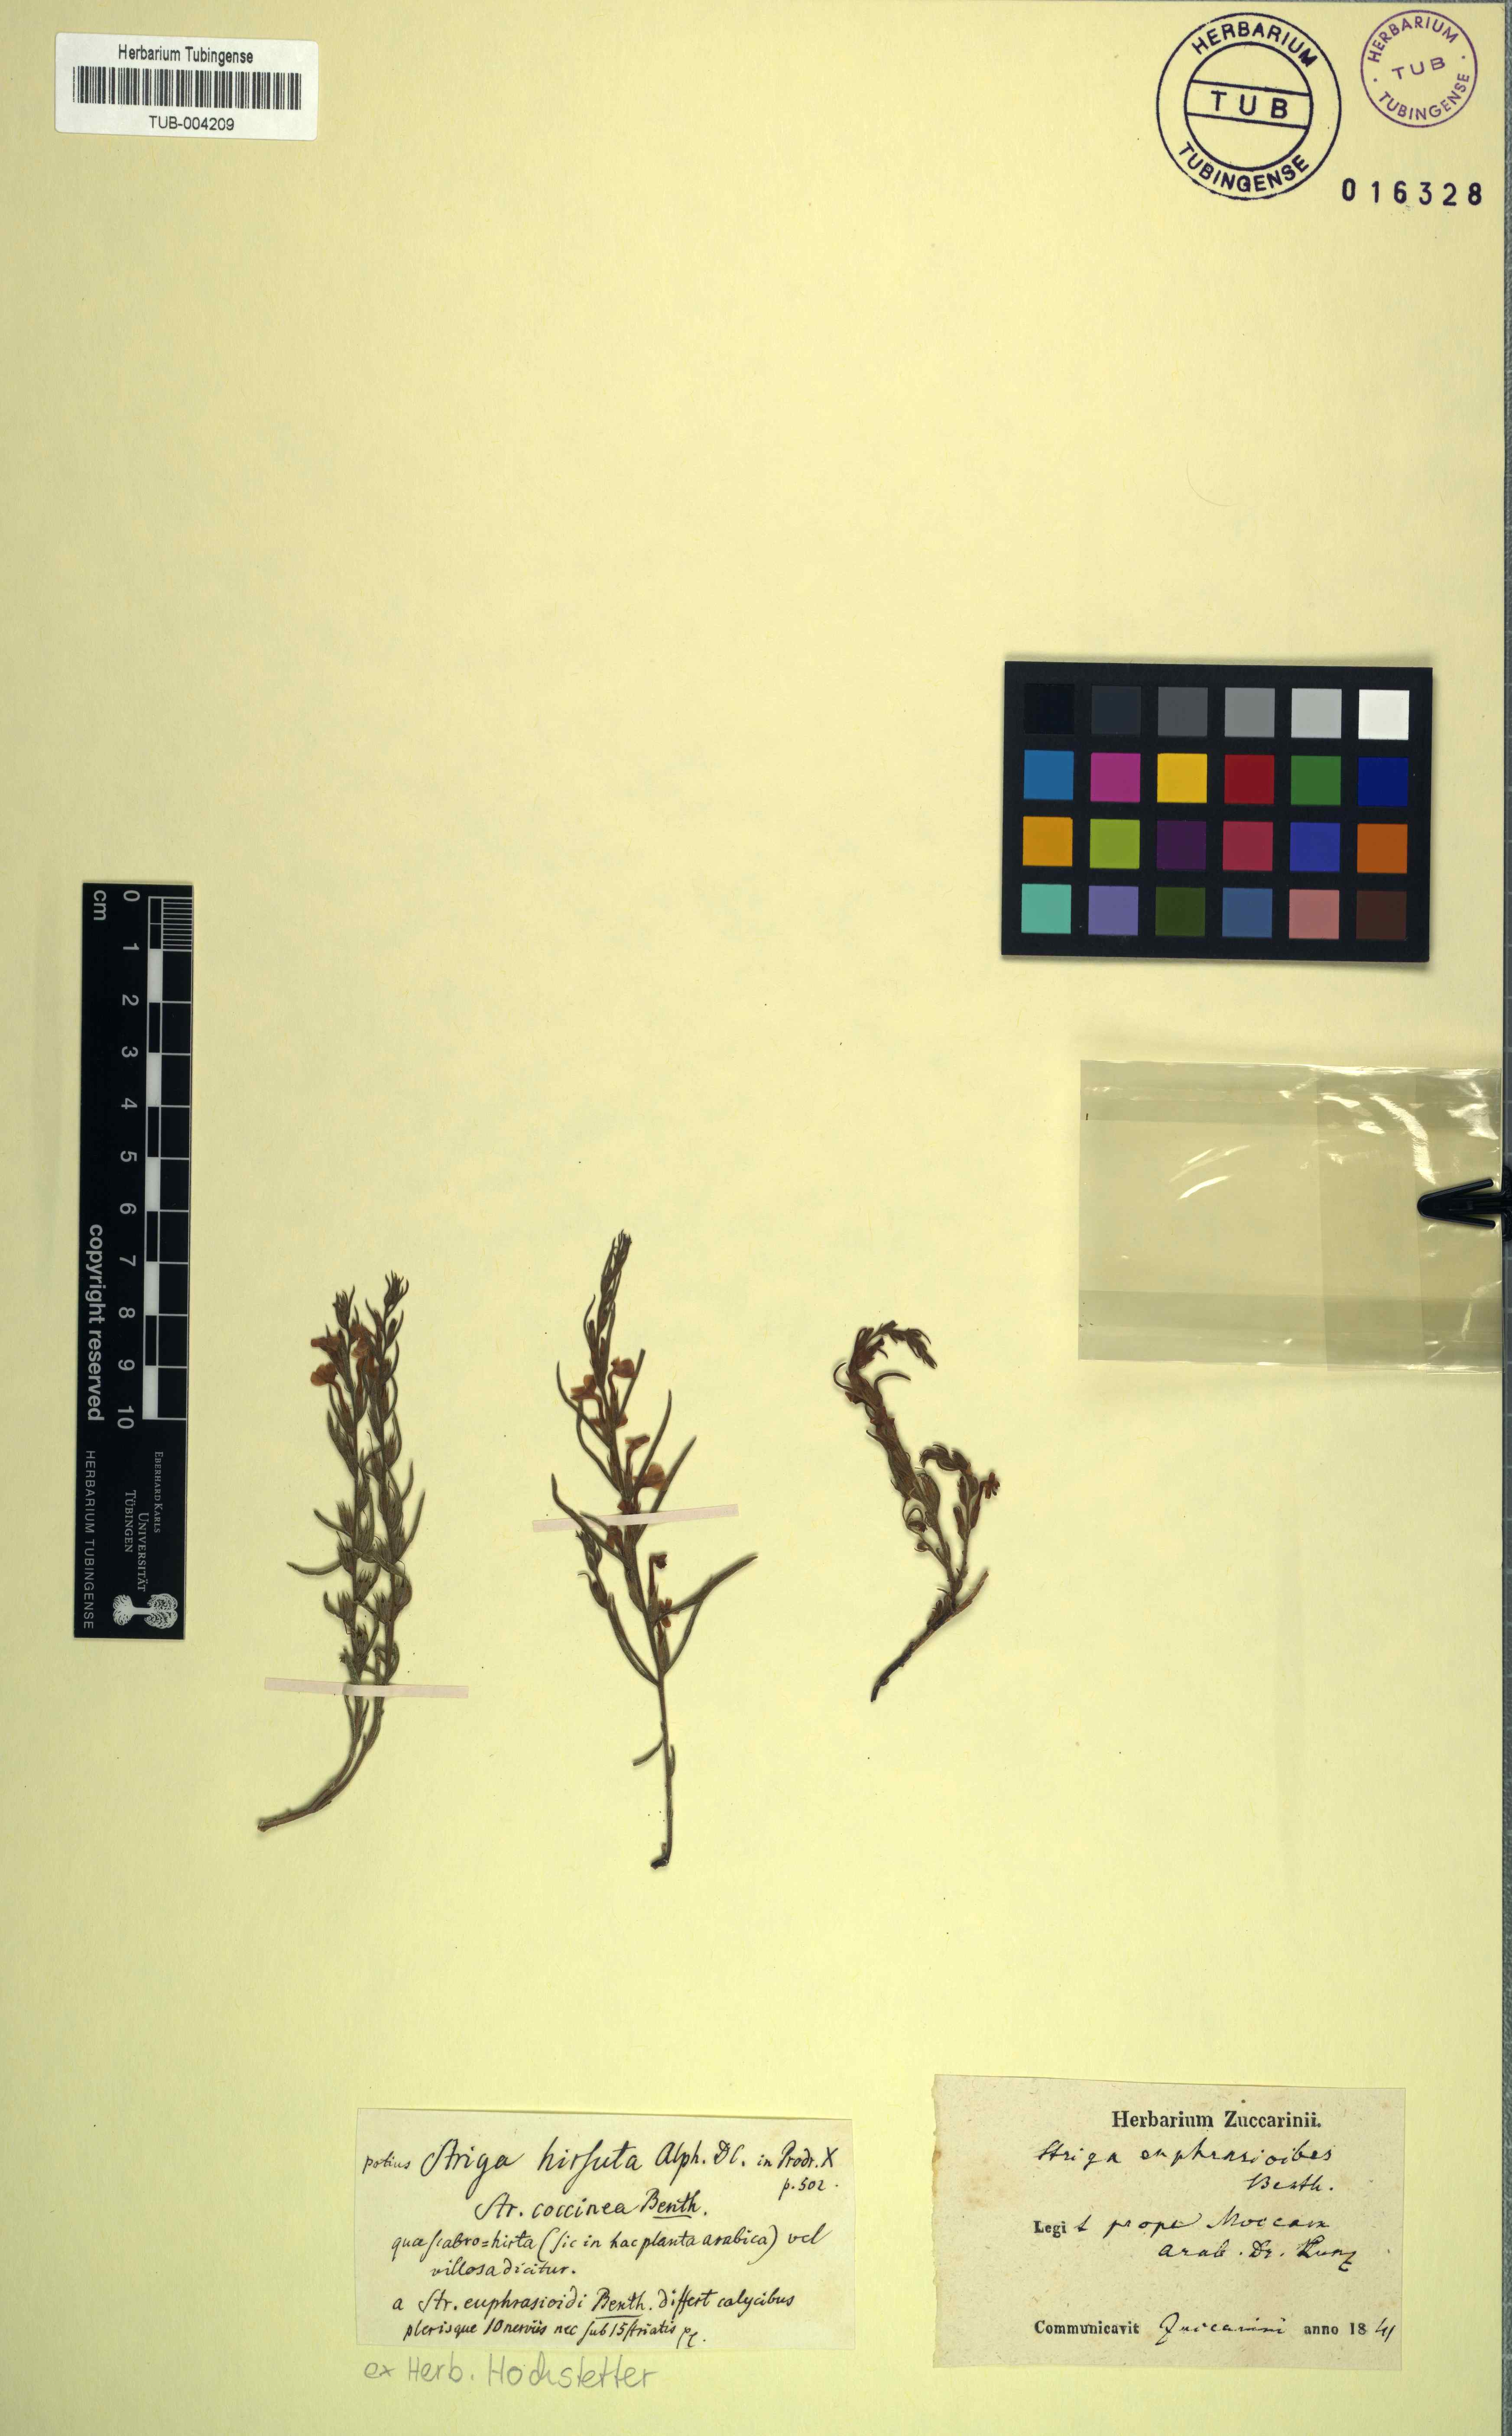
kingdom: Plantae
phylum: Tracheophyta
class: Magnoliopsida
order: Lamiales
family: Orobanchaceae
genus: Striga
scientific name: Striga angustifolia
